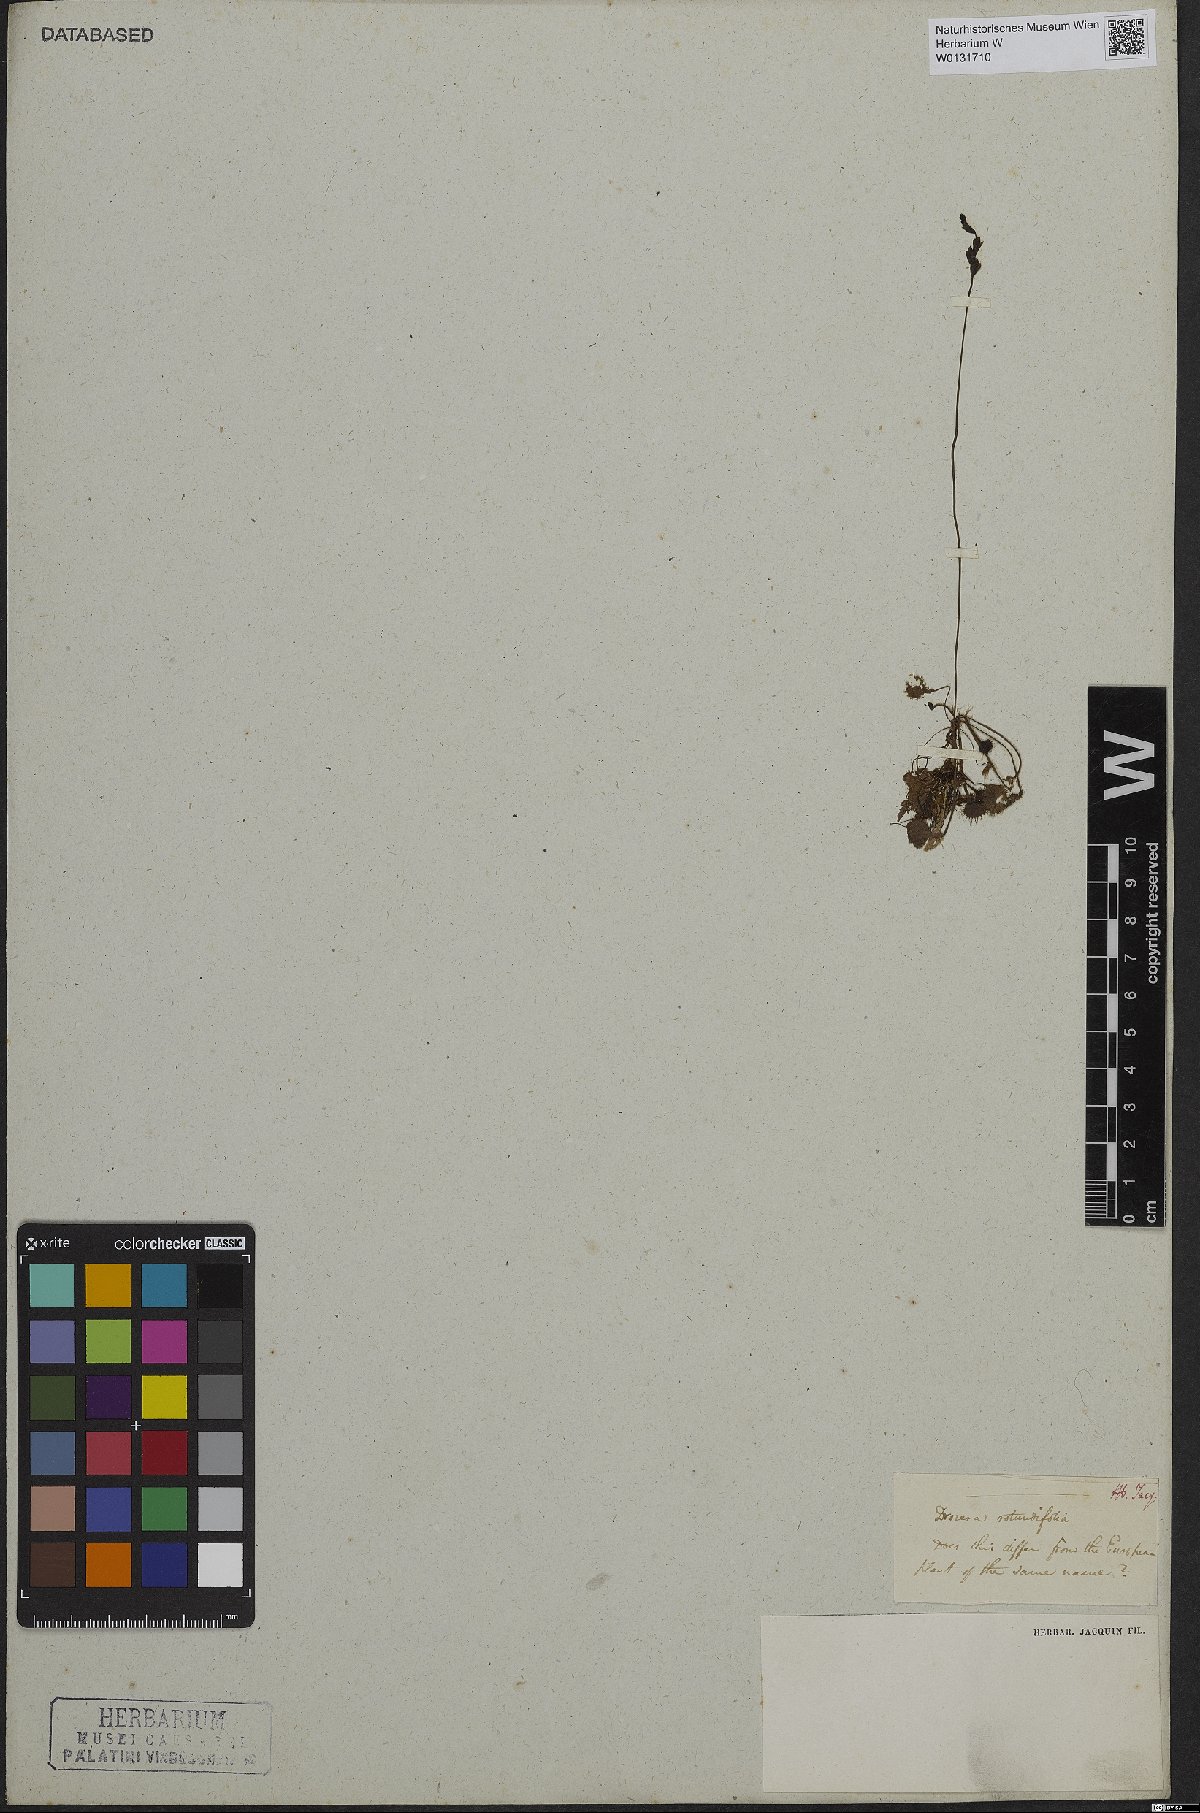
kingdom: Plantae
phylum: Tracheophyta
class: Magnoliopsida
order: Caryophyllales
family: Droseraceae
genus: Drosera
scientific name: Drosera rotundifolia
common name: Round-leaved sundew
